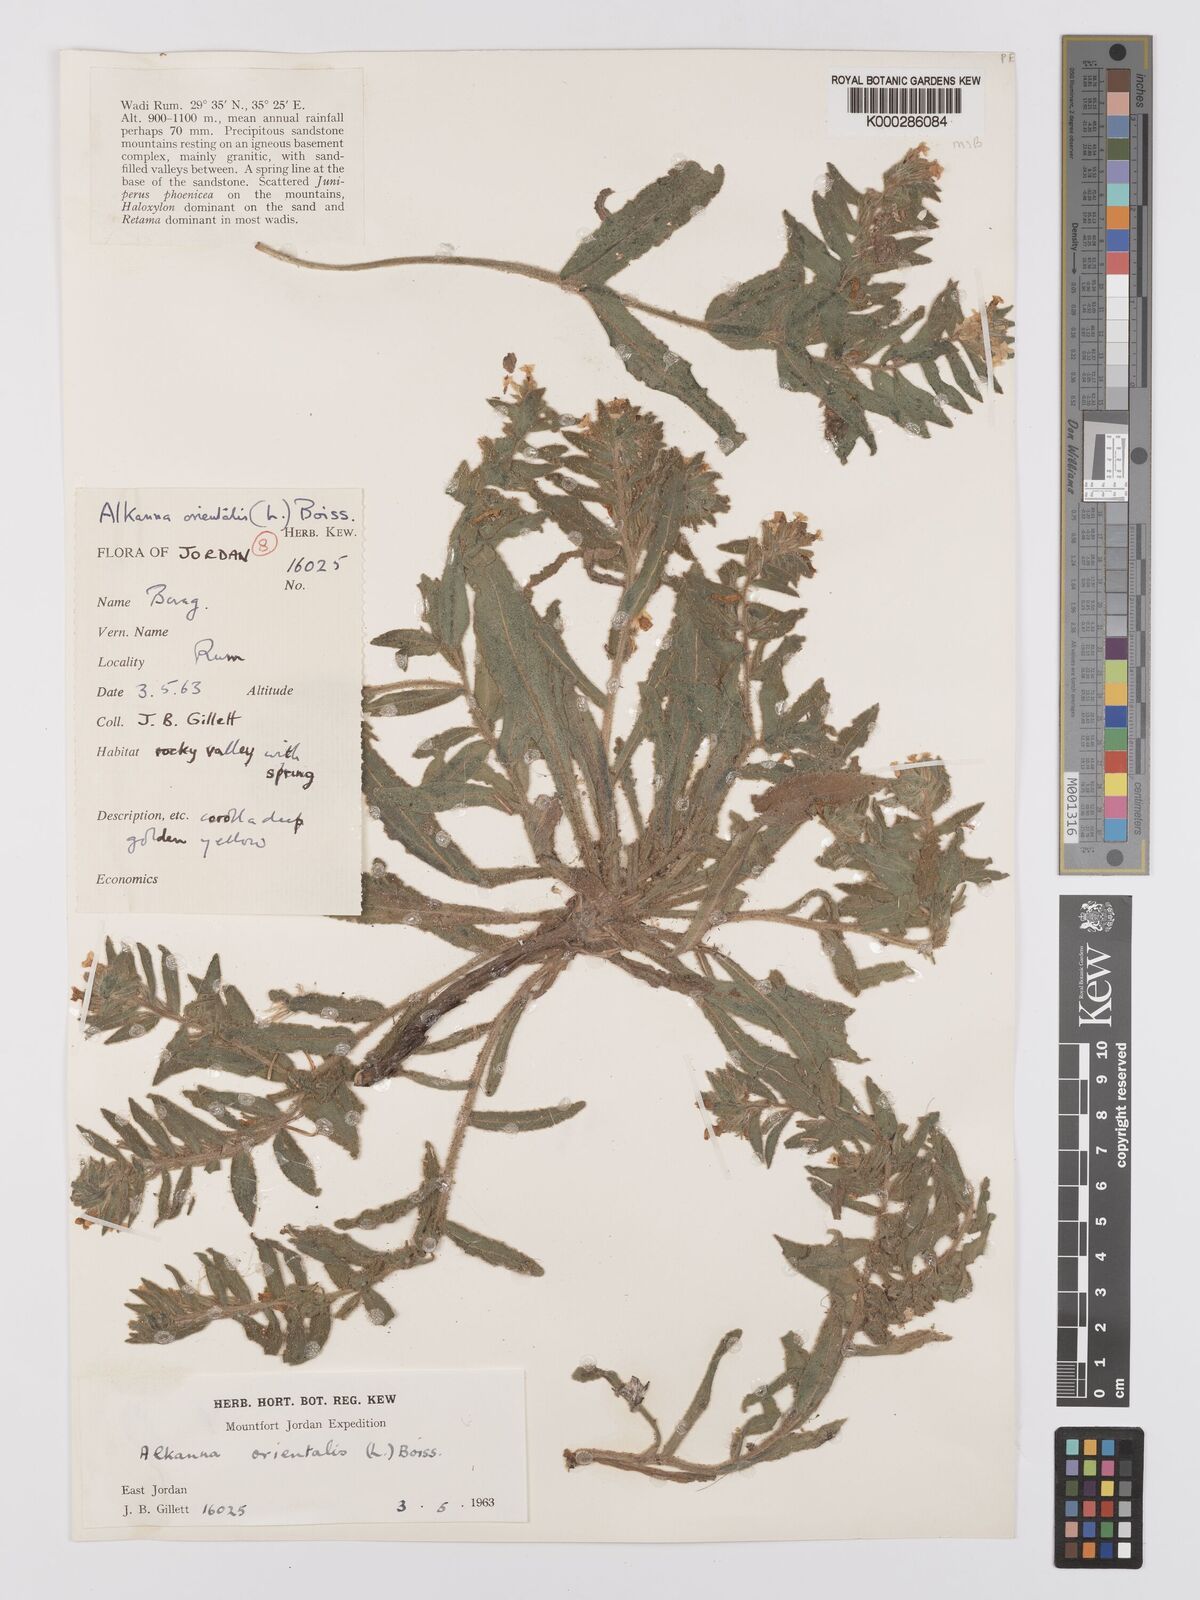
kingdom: Plantae
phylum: Tracheophyta
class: Magnoliopsida
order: Boraginales
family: Boraginaceae
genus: Alkanna
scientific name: Alkanna orientalis
